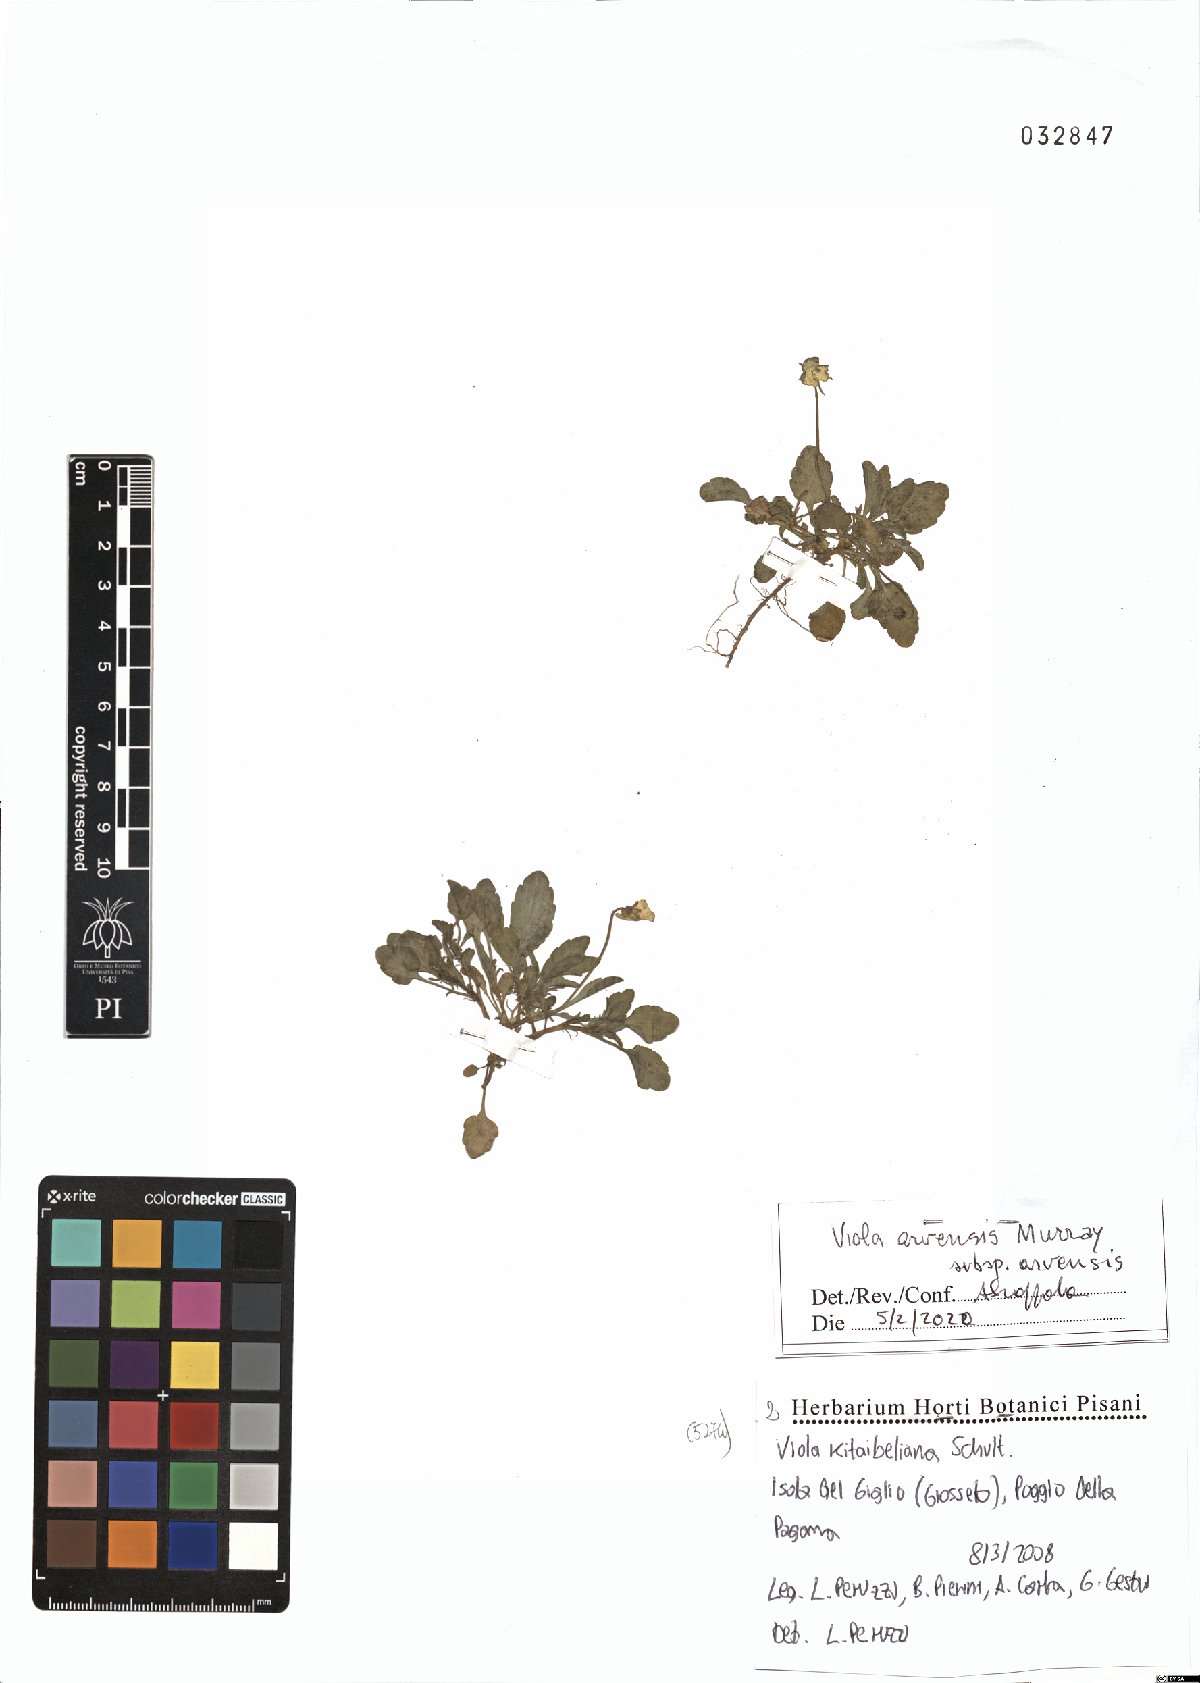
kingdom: Plantae
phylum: Tracheophyta
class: Magnoliopsida
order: Malpighiales
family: Violaceae
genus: Viola
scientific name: Viola arvensis
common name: Field pansy
